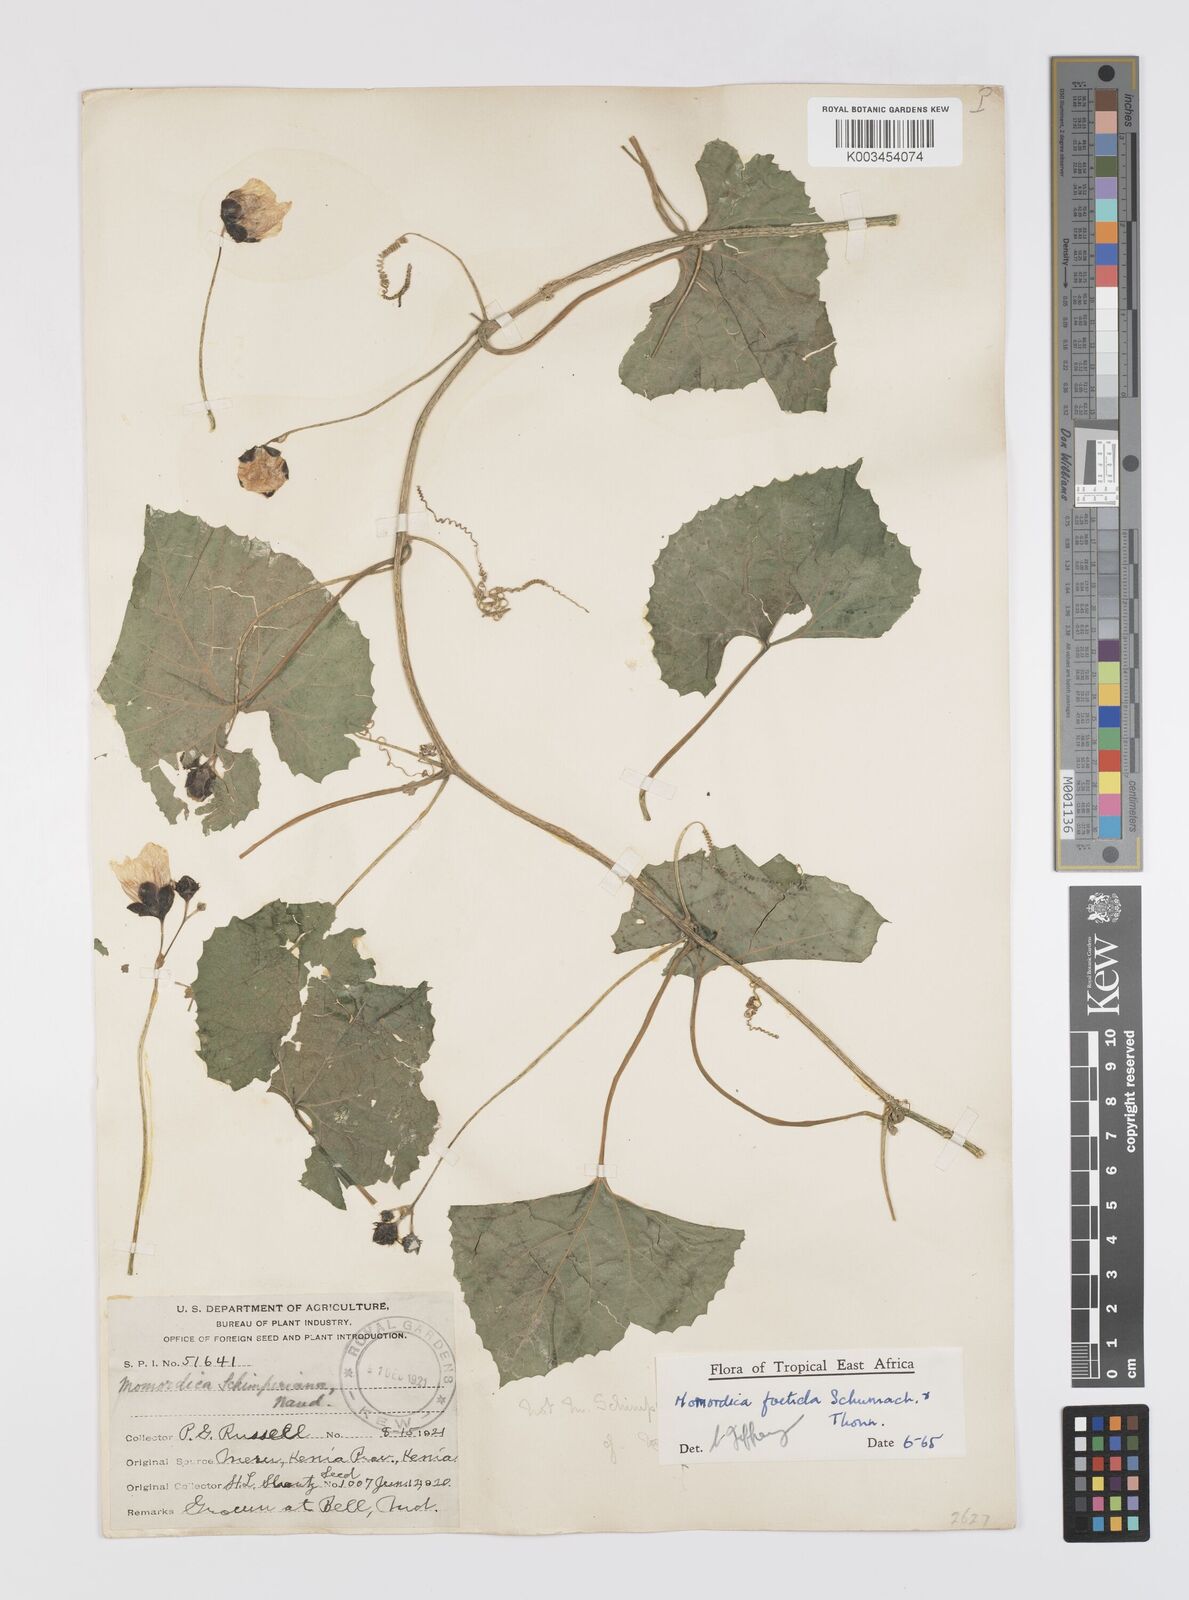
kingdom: Plantae
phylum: Tracheophyta
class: Magnoliopsida
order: Cucurbitales
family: Cucurbitaceae
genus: Momordica
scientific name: Momordica foetida
